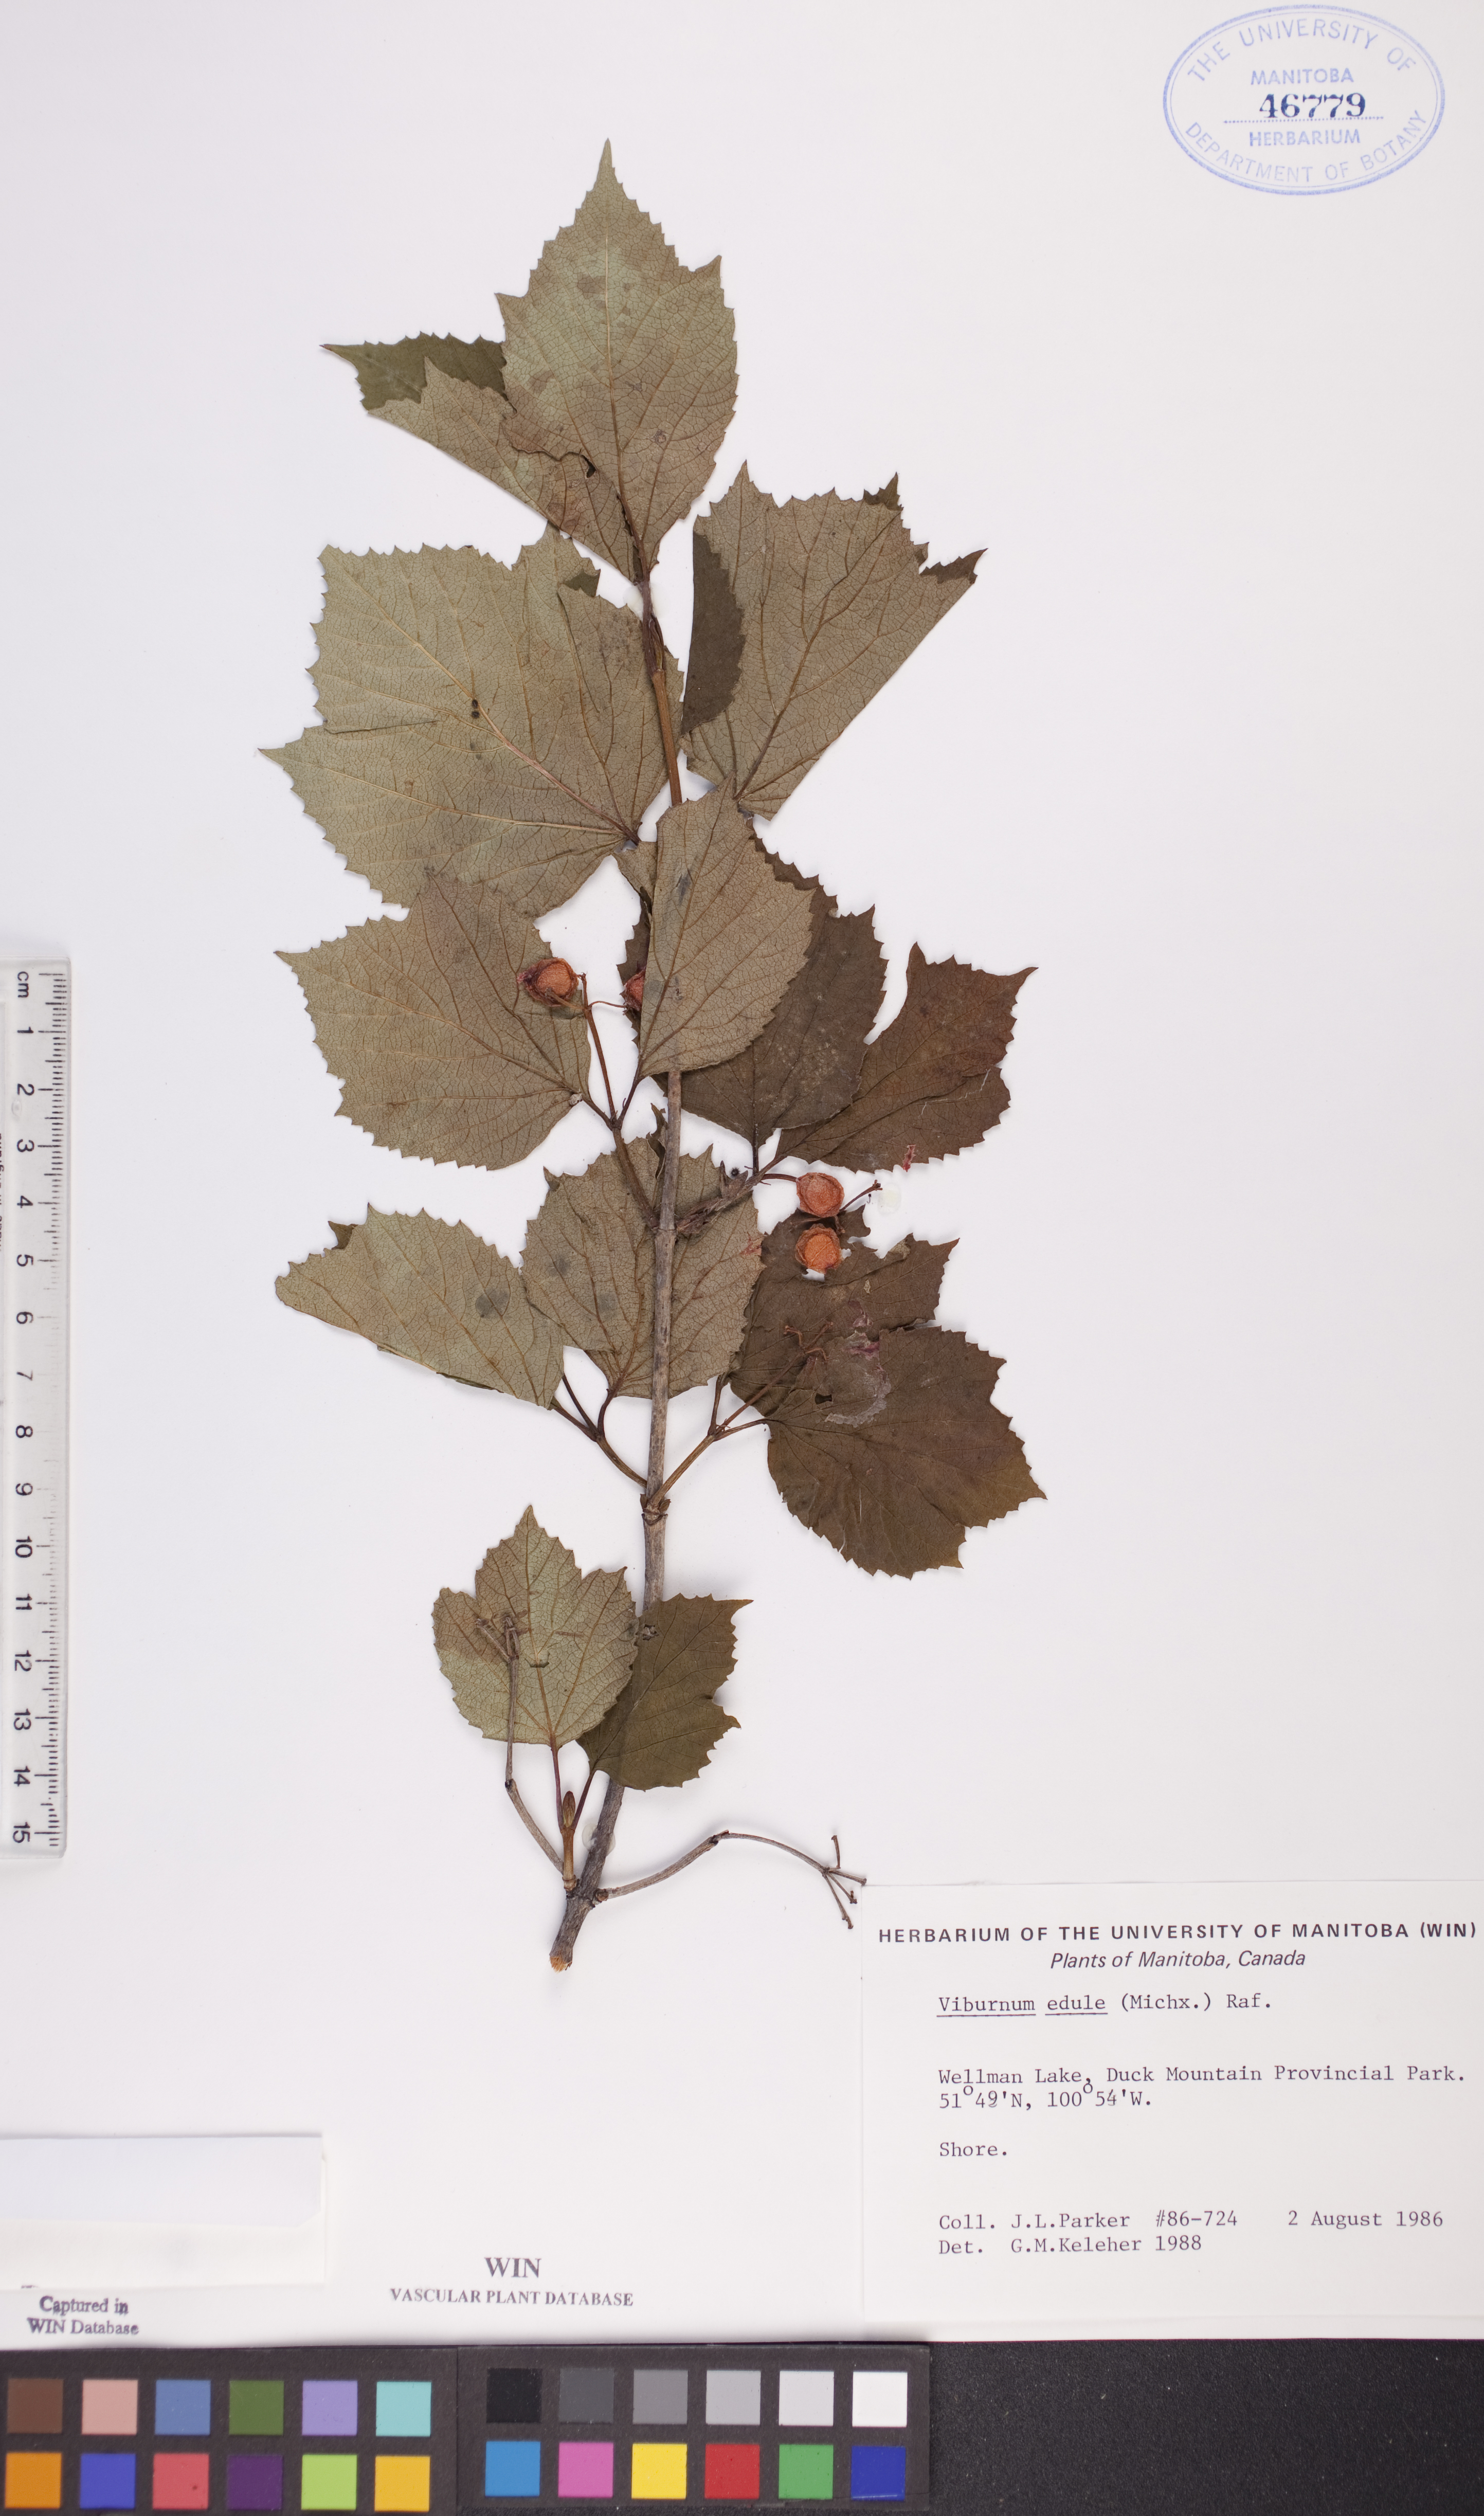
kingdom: Plantae
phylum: Tracheophyta
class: Magnoliopsida
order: Dipsacales
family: Viburnaceae
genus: Viburnum
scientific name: Viburnum edule
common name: Mooseberry
